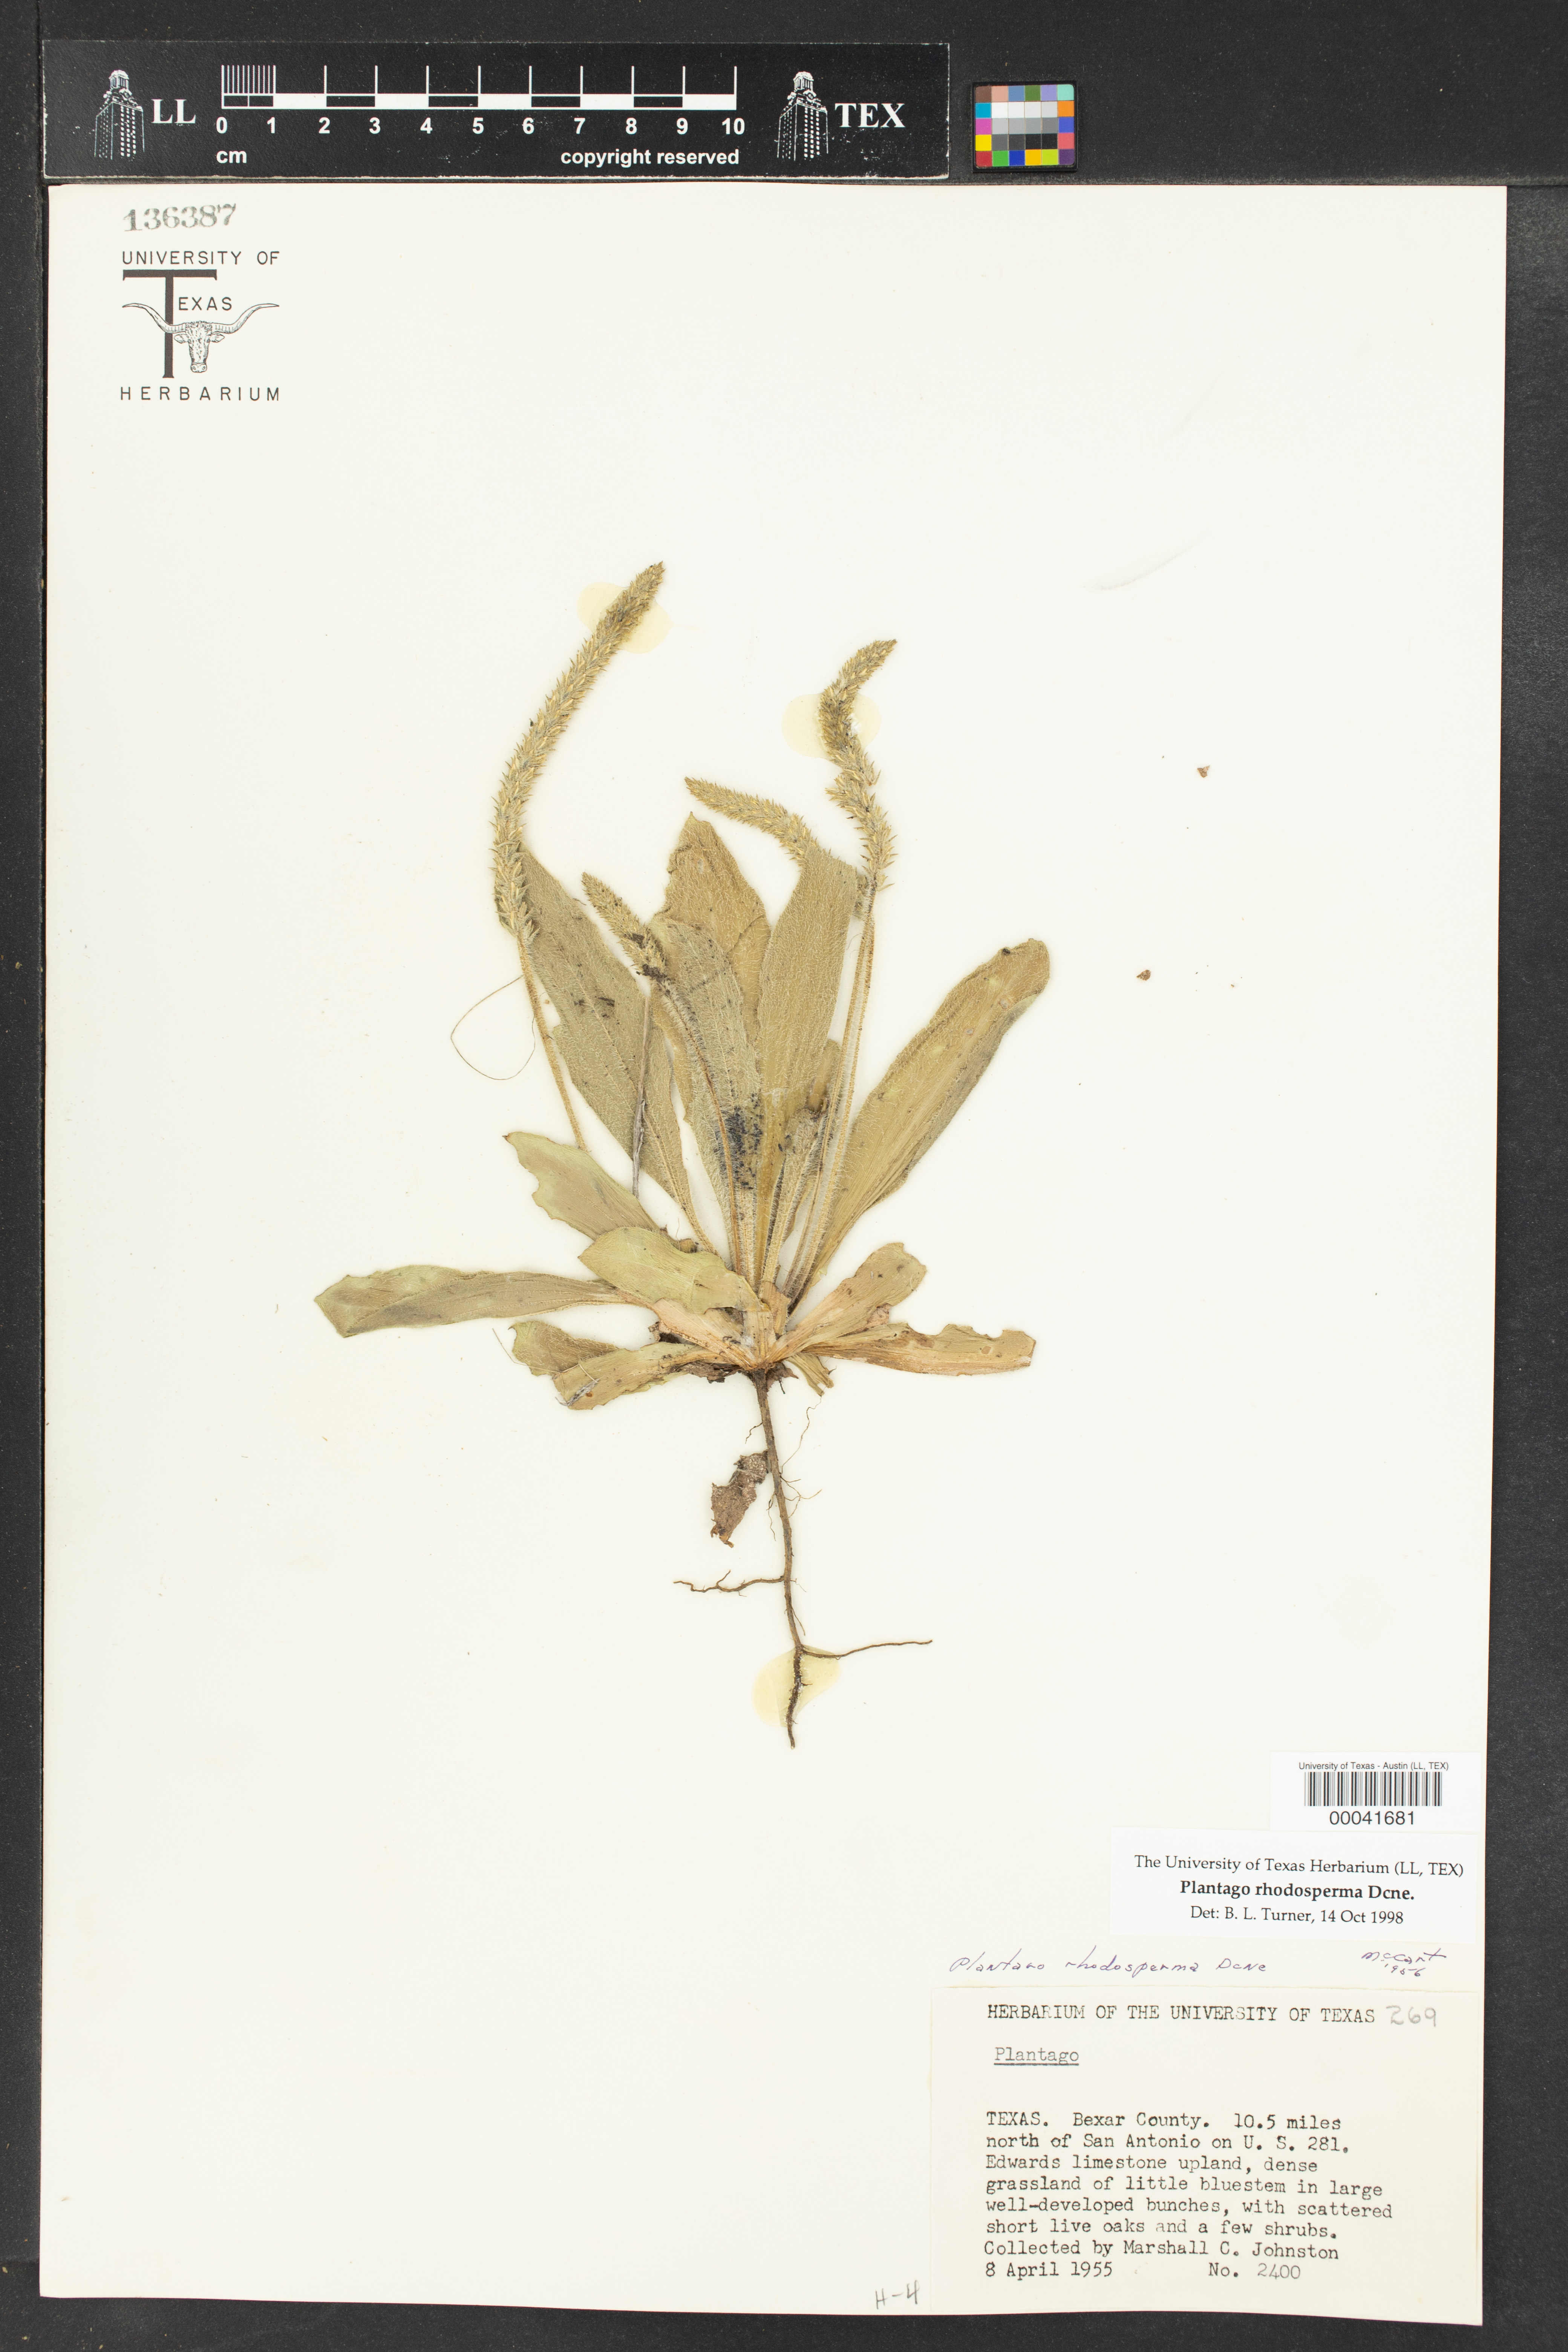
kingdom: Plantae
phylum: Tracheophyta
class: Magnoliopsida
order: Lamiales
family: Plantaginaceae
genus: Plantago
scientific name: Plantago rhodosperma
